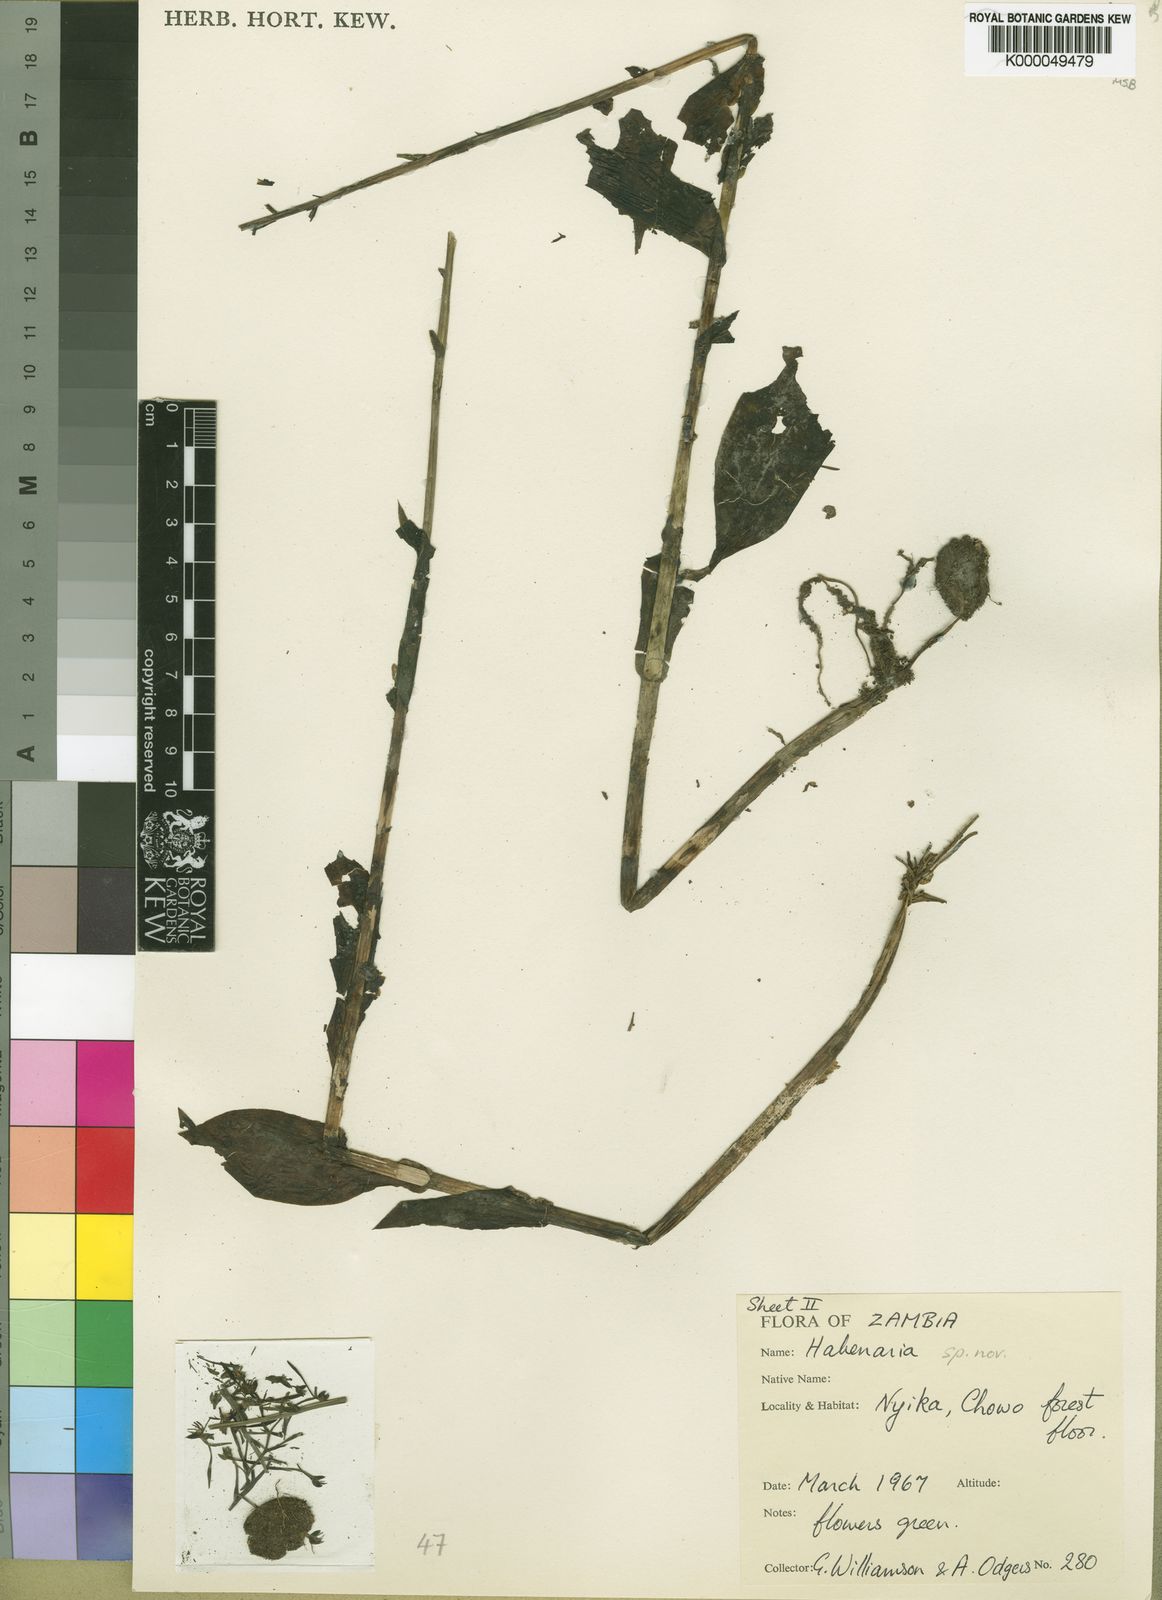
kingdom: Plantae
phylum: Tracheophyta
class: Liliopsida
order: Asparagales
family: Orchidaceae
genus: Habenaria
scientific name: Habenaria pubidens
